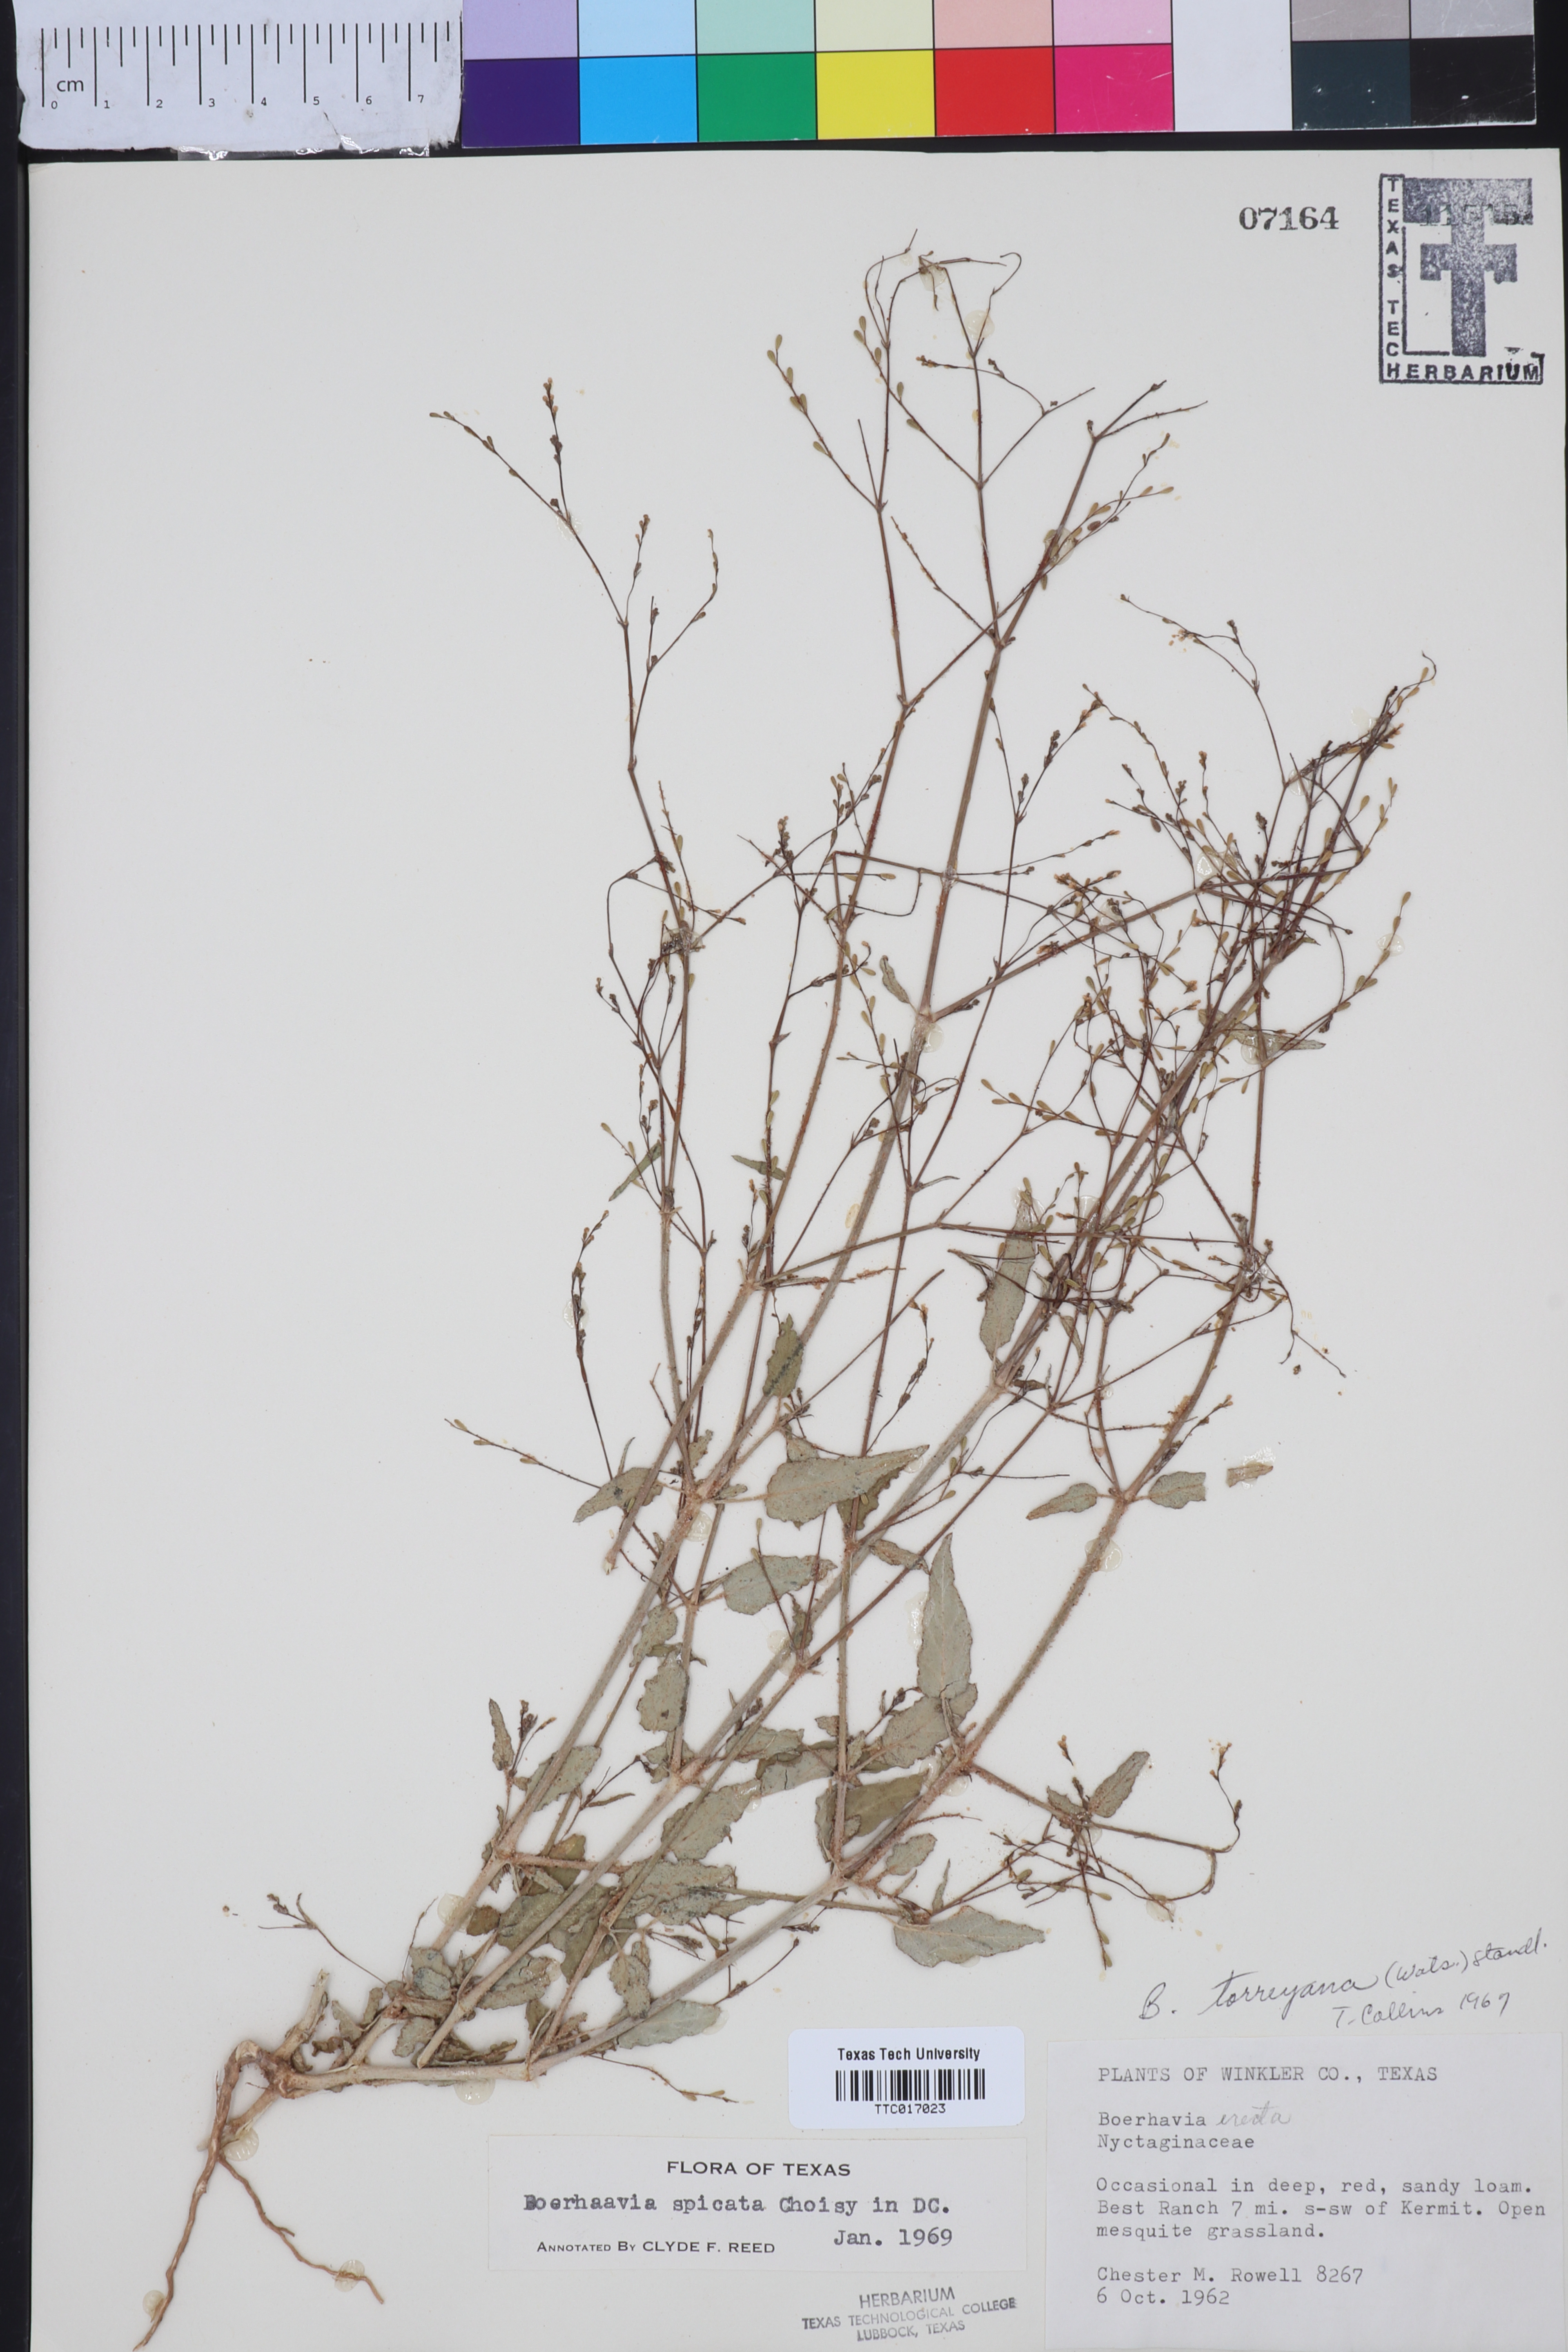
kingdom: Plantae
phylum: Tracheophyta
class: Magnoliopsida
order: Caryophyllales
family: Nyctaginaceae
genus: Boerhavia
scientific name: Boerhavia spicata
